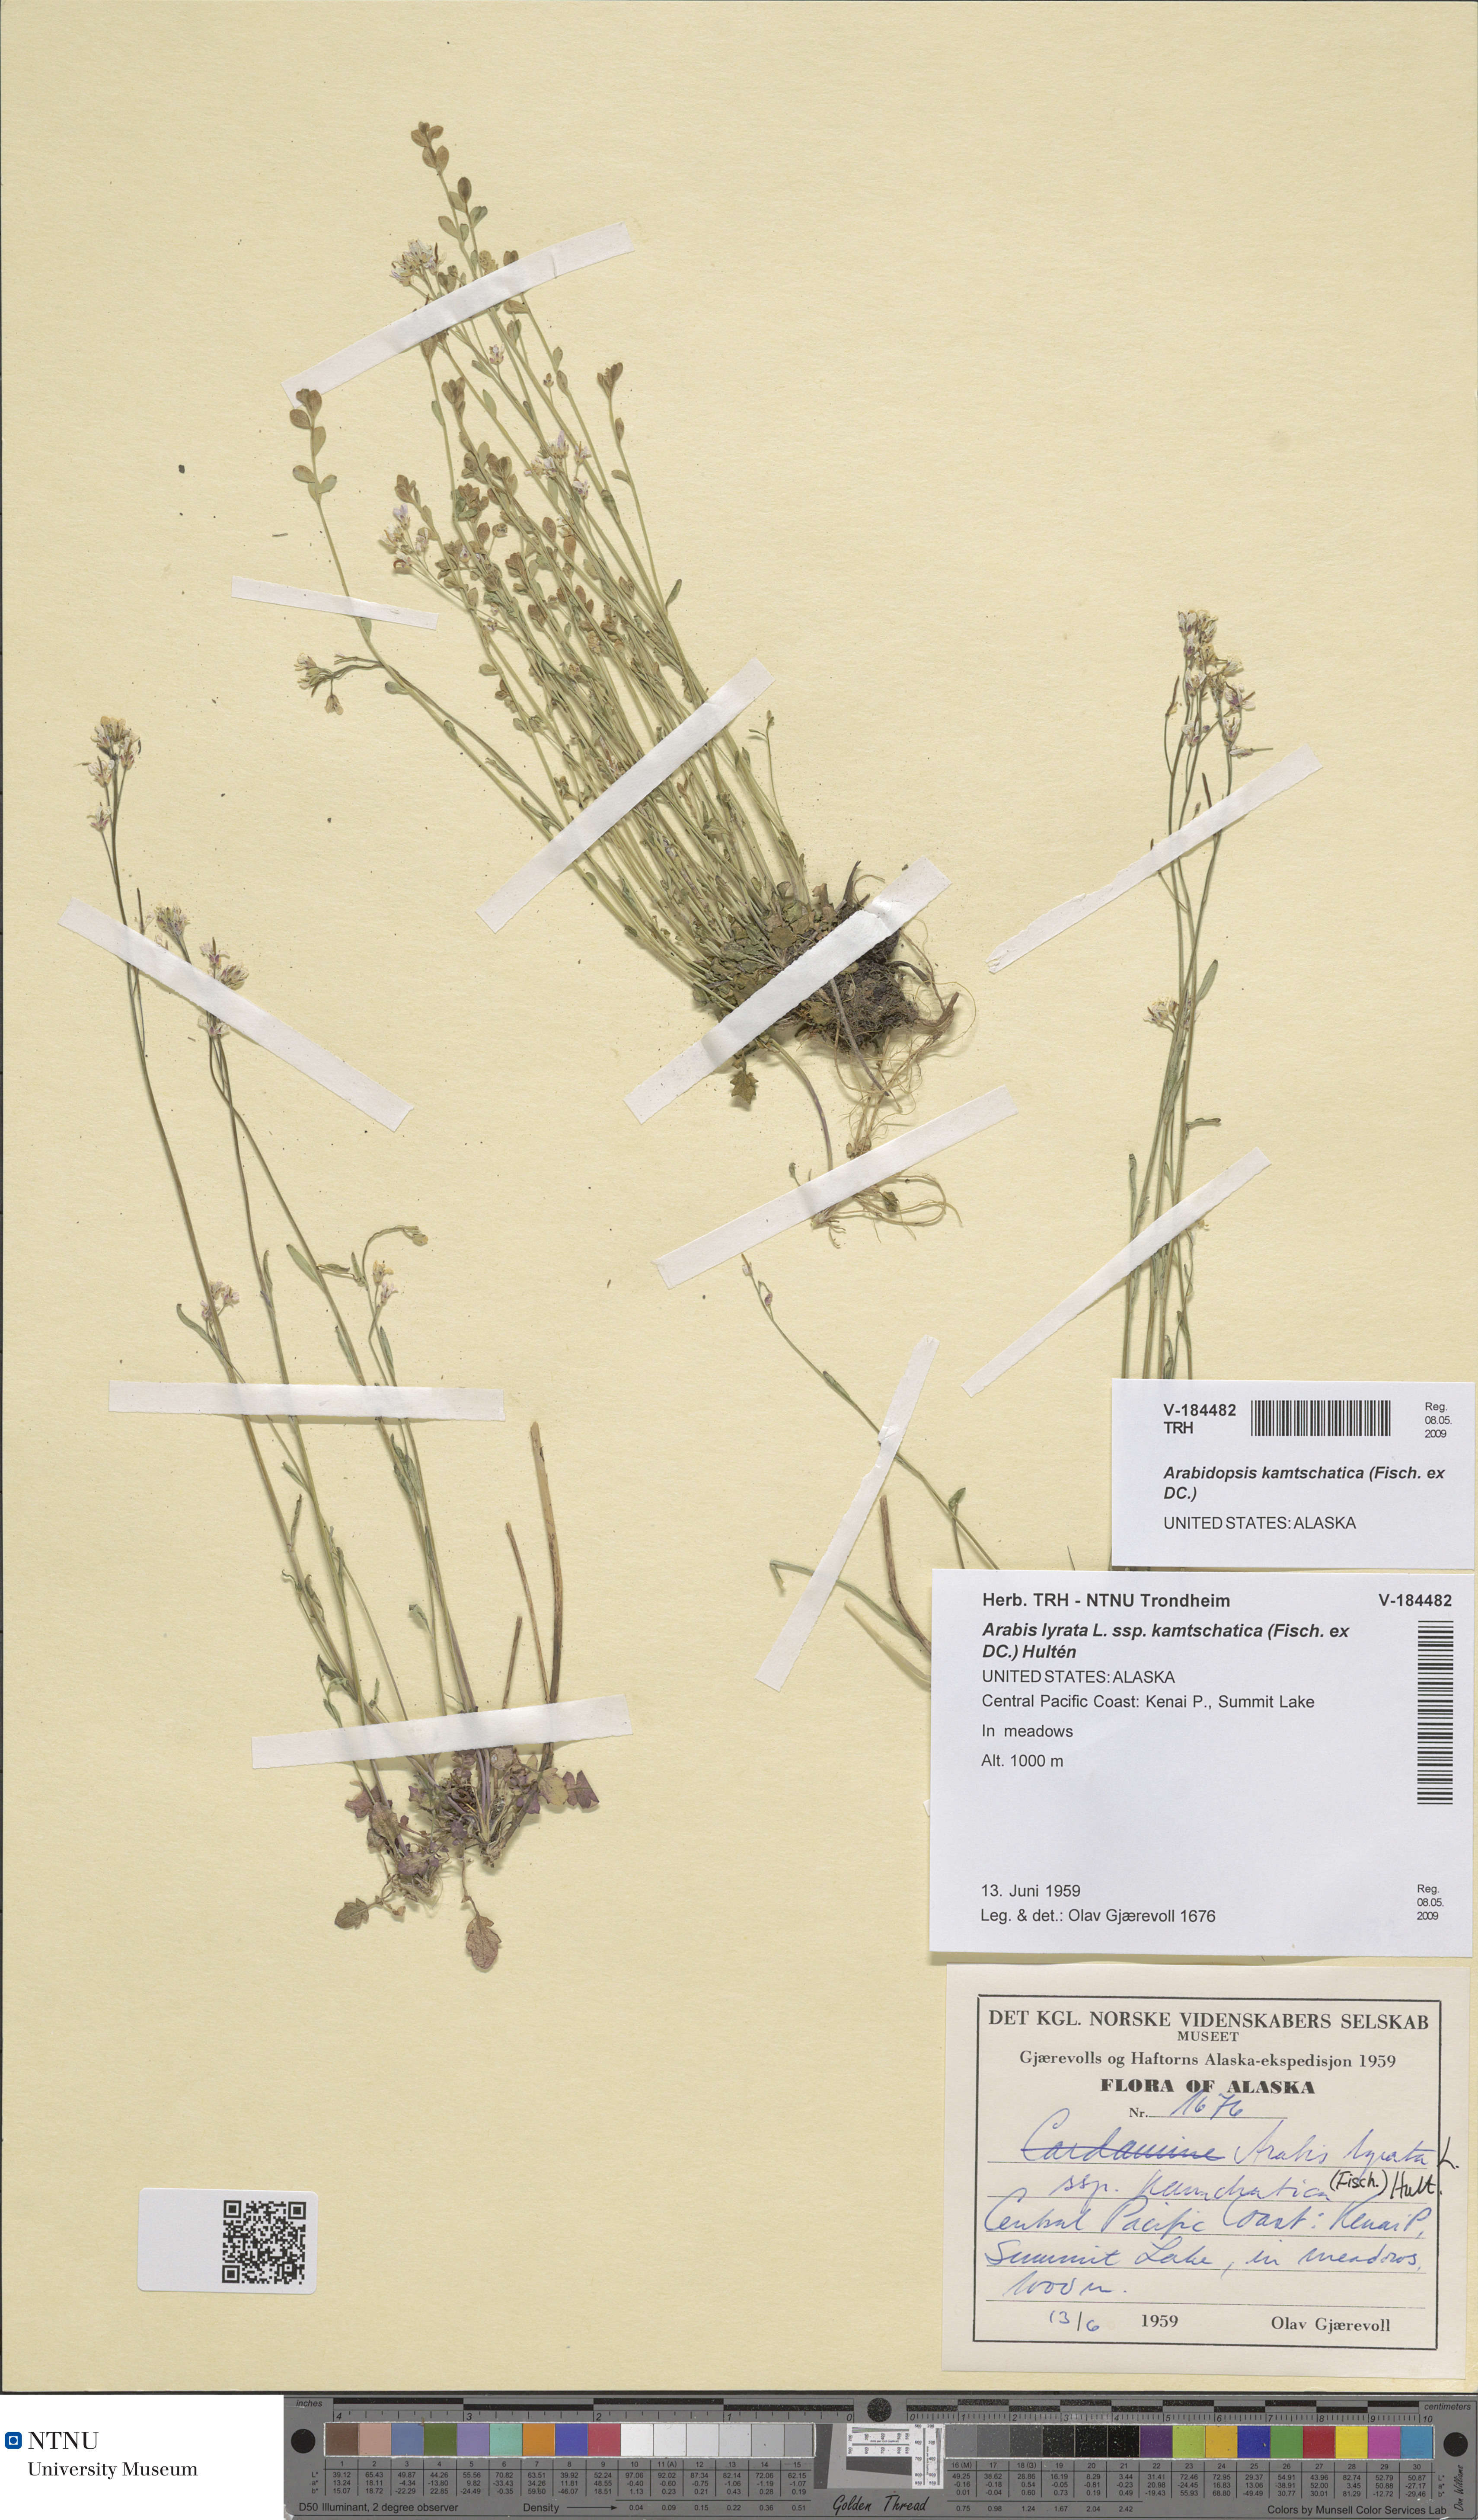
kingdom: Plantae
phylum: Tracheophyta
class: Magnoliopsida
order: Brassicales
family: Brassicaceae
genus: Arabidopsis
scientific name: Arabidopsis lyrata
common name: Lyrate rockcress
